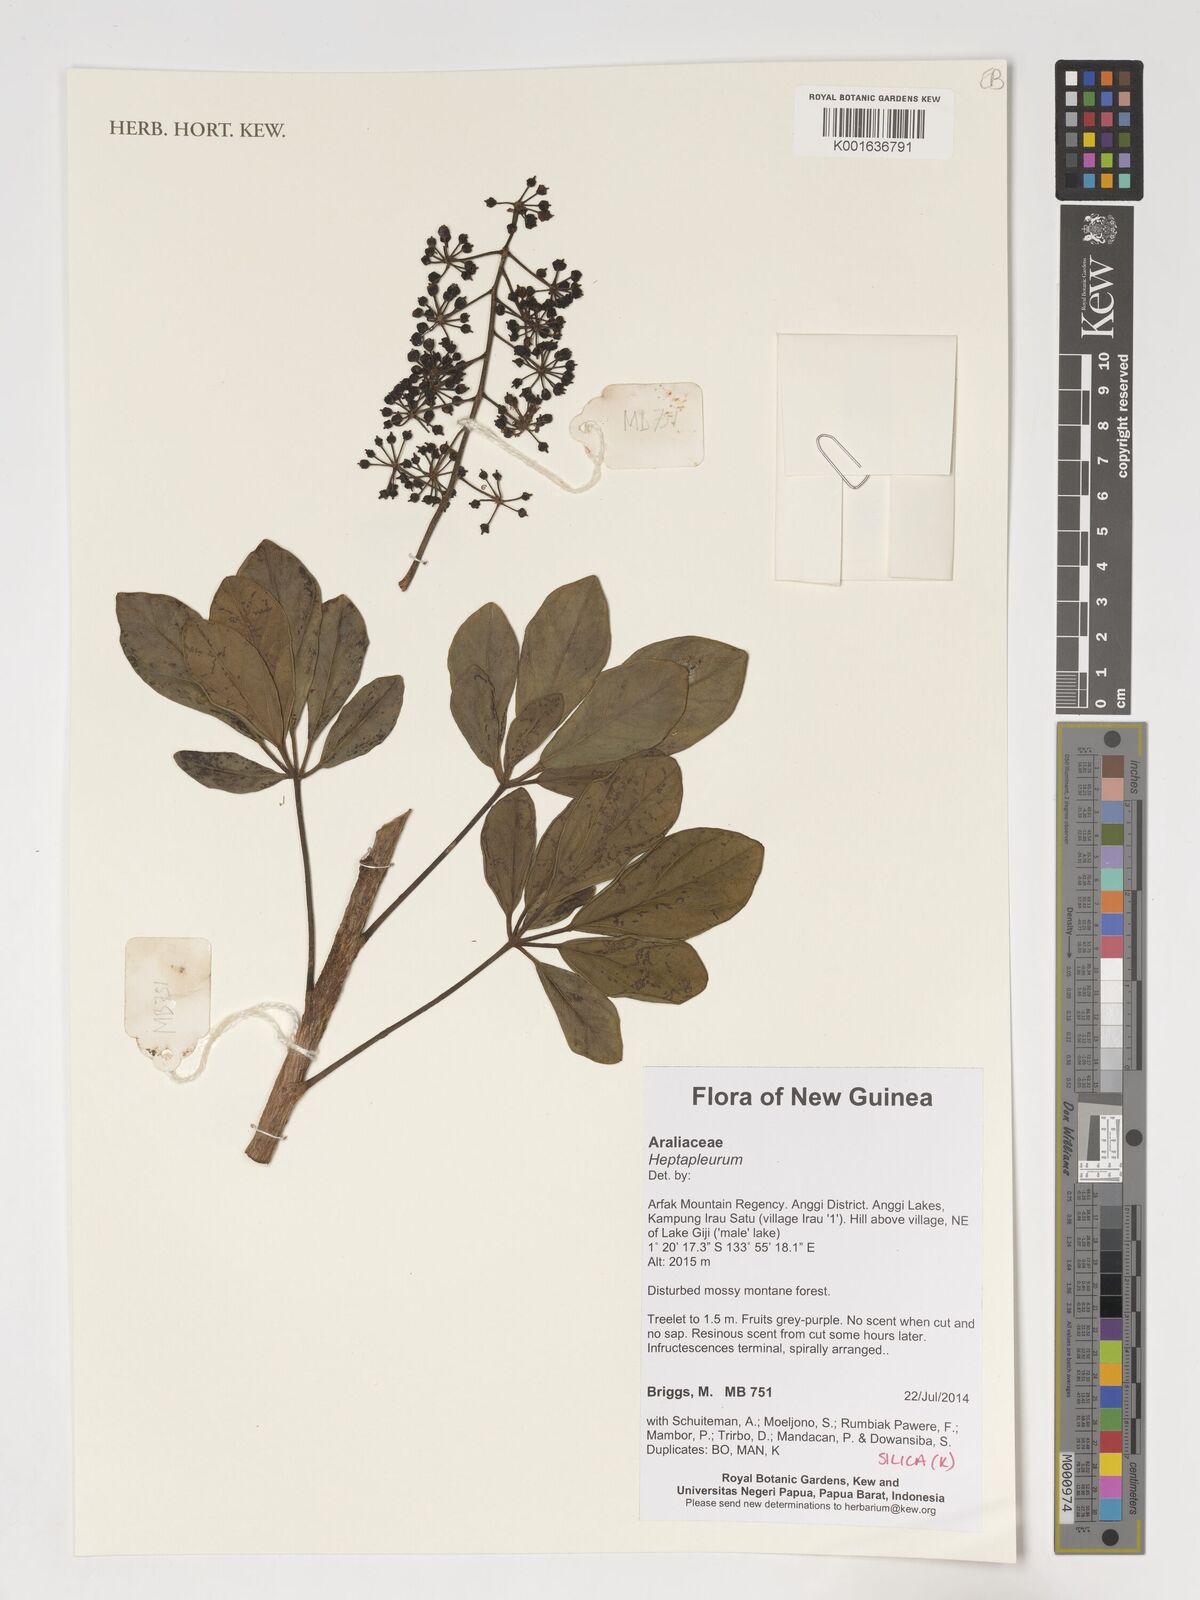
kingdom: Plantae
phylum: Tracheophyta
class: Magnoliopsida
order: Apiales
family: Araliaceae
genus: Heptapleurum
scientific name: Heptapleurum
